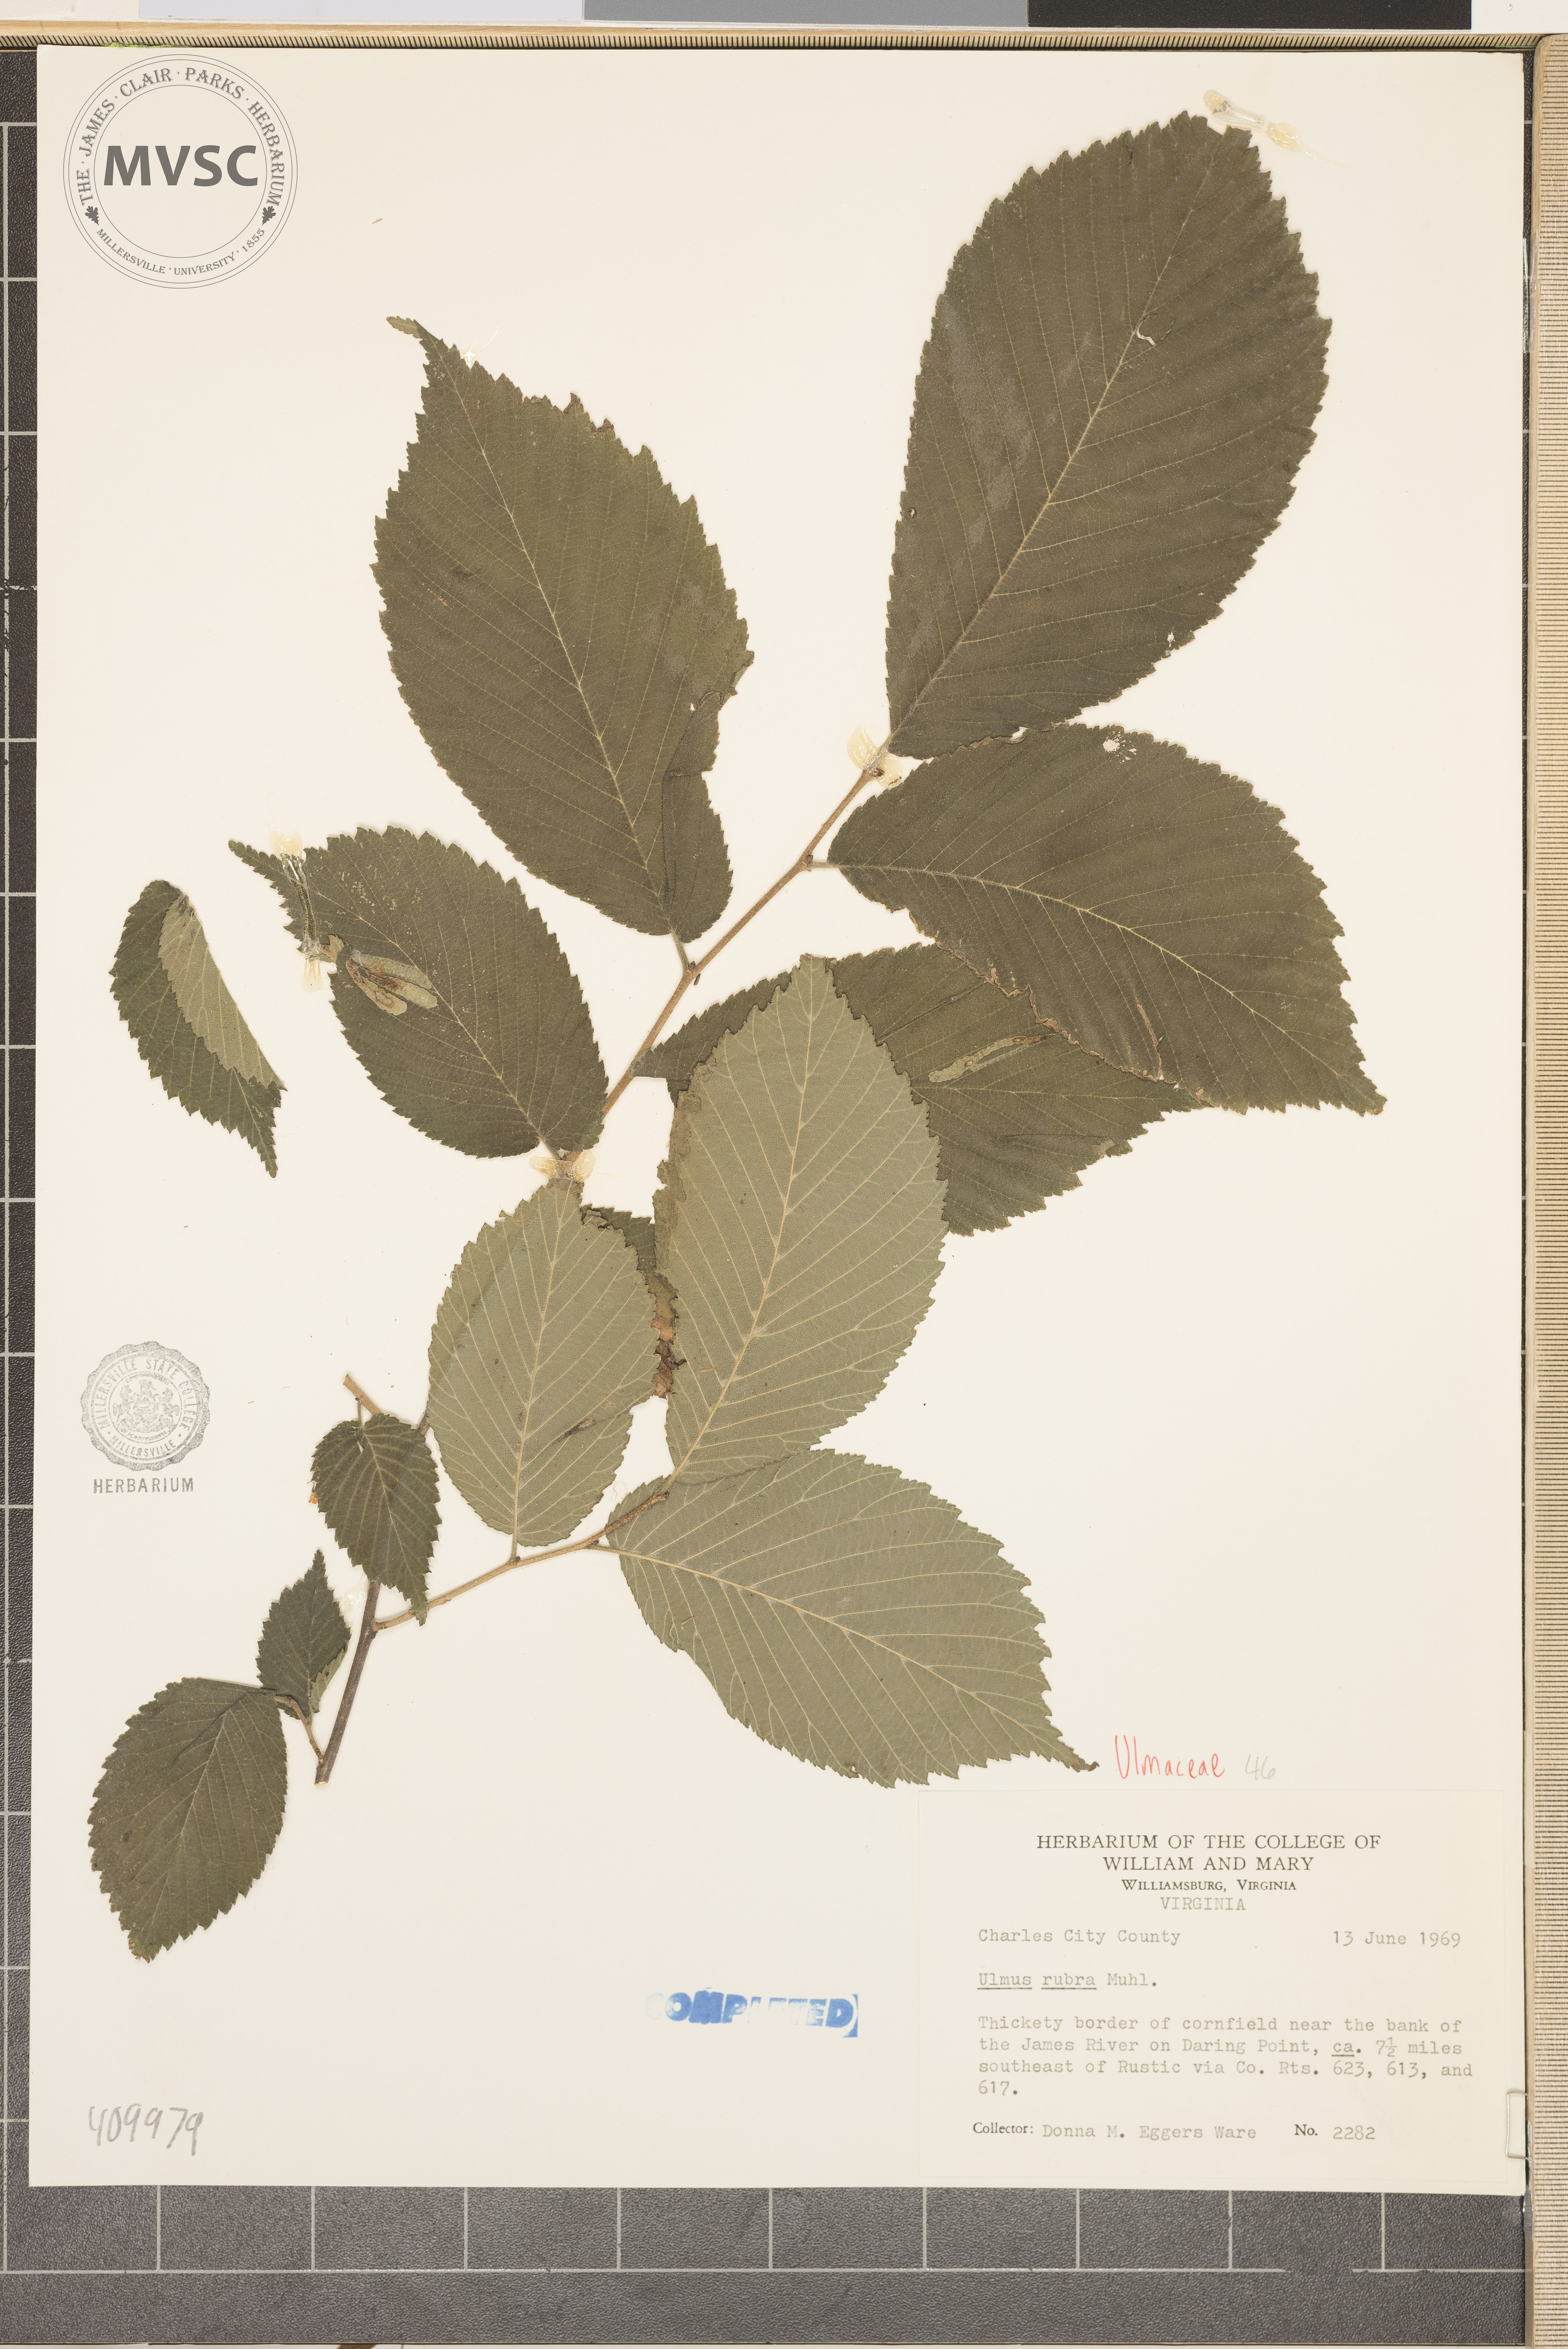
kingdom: Plantae
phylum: Tracheophyta
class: Magnoliopsida
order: Rosales
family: Ulmaceae
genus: Ulmus
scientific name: Ulmus rubra
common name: slippery elm
